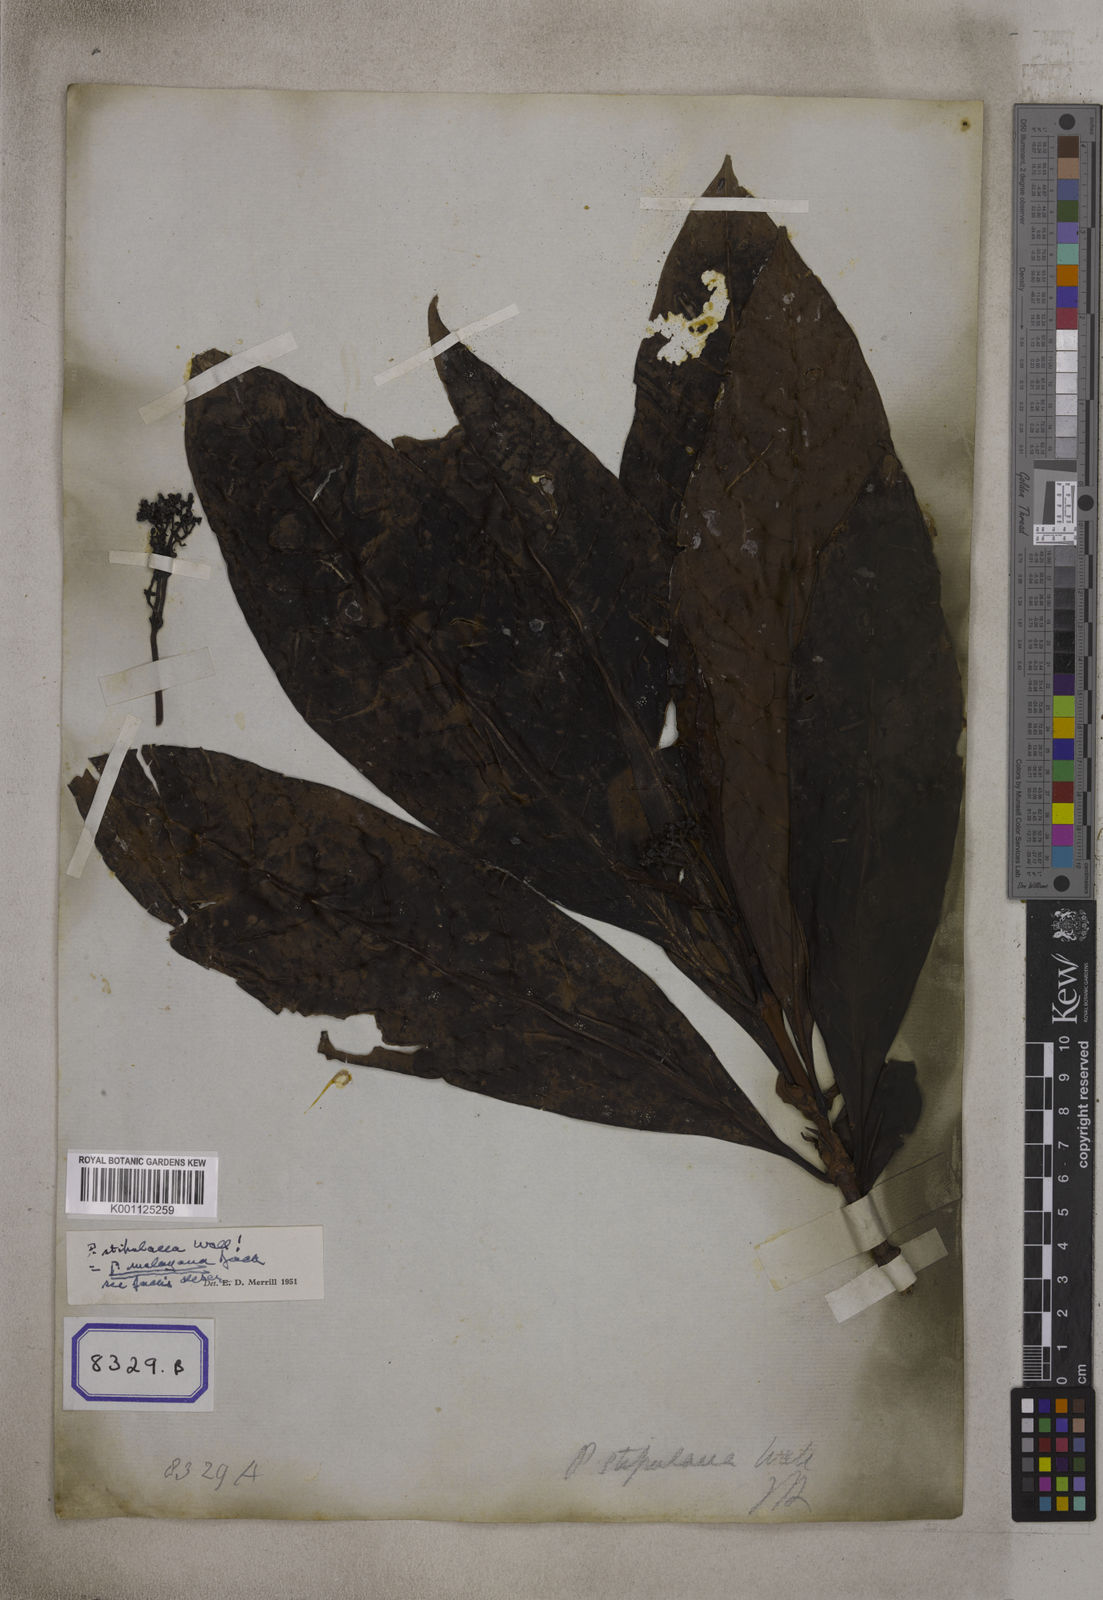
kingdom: Plantae
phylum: Tracheophyta
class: Magnoliopsida
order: Gentianales
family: Rubiaceae
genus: Psychotria
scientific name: Psychotria malayana
